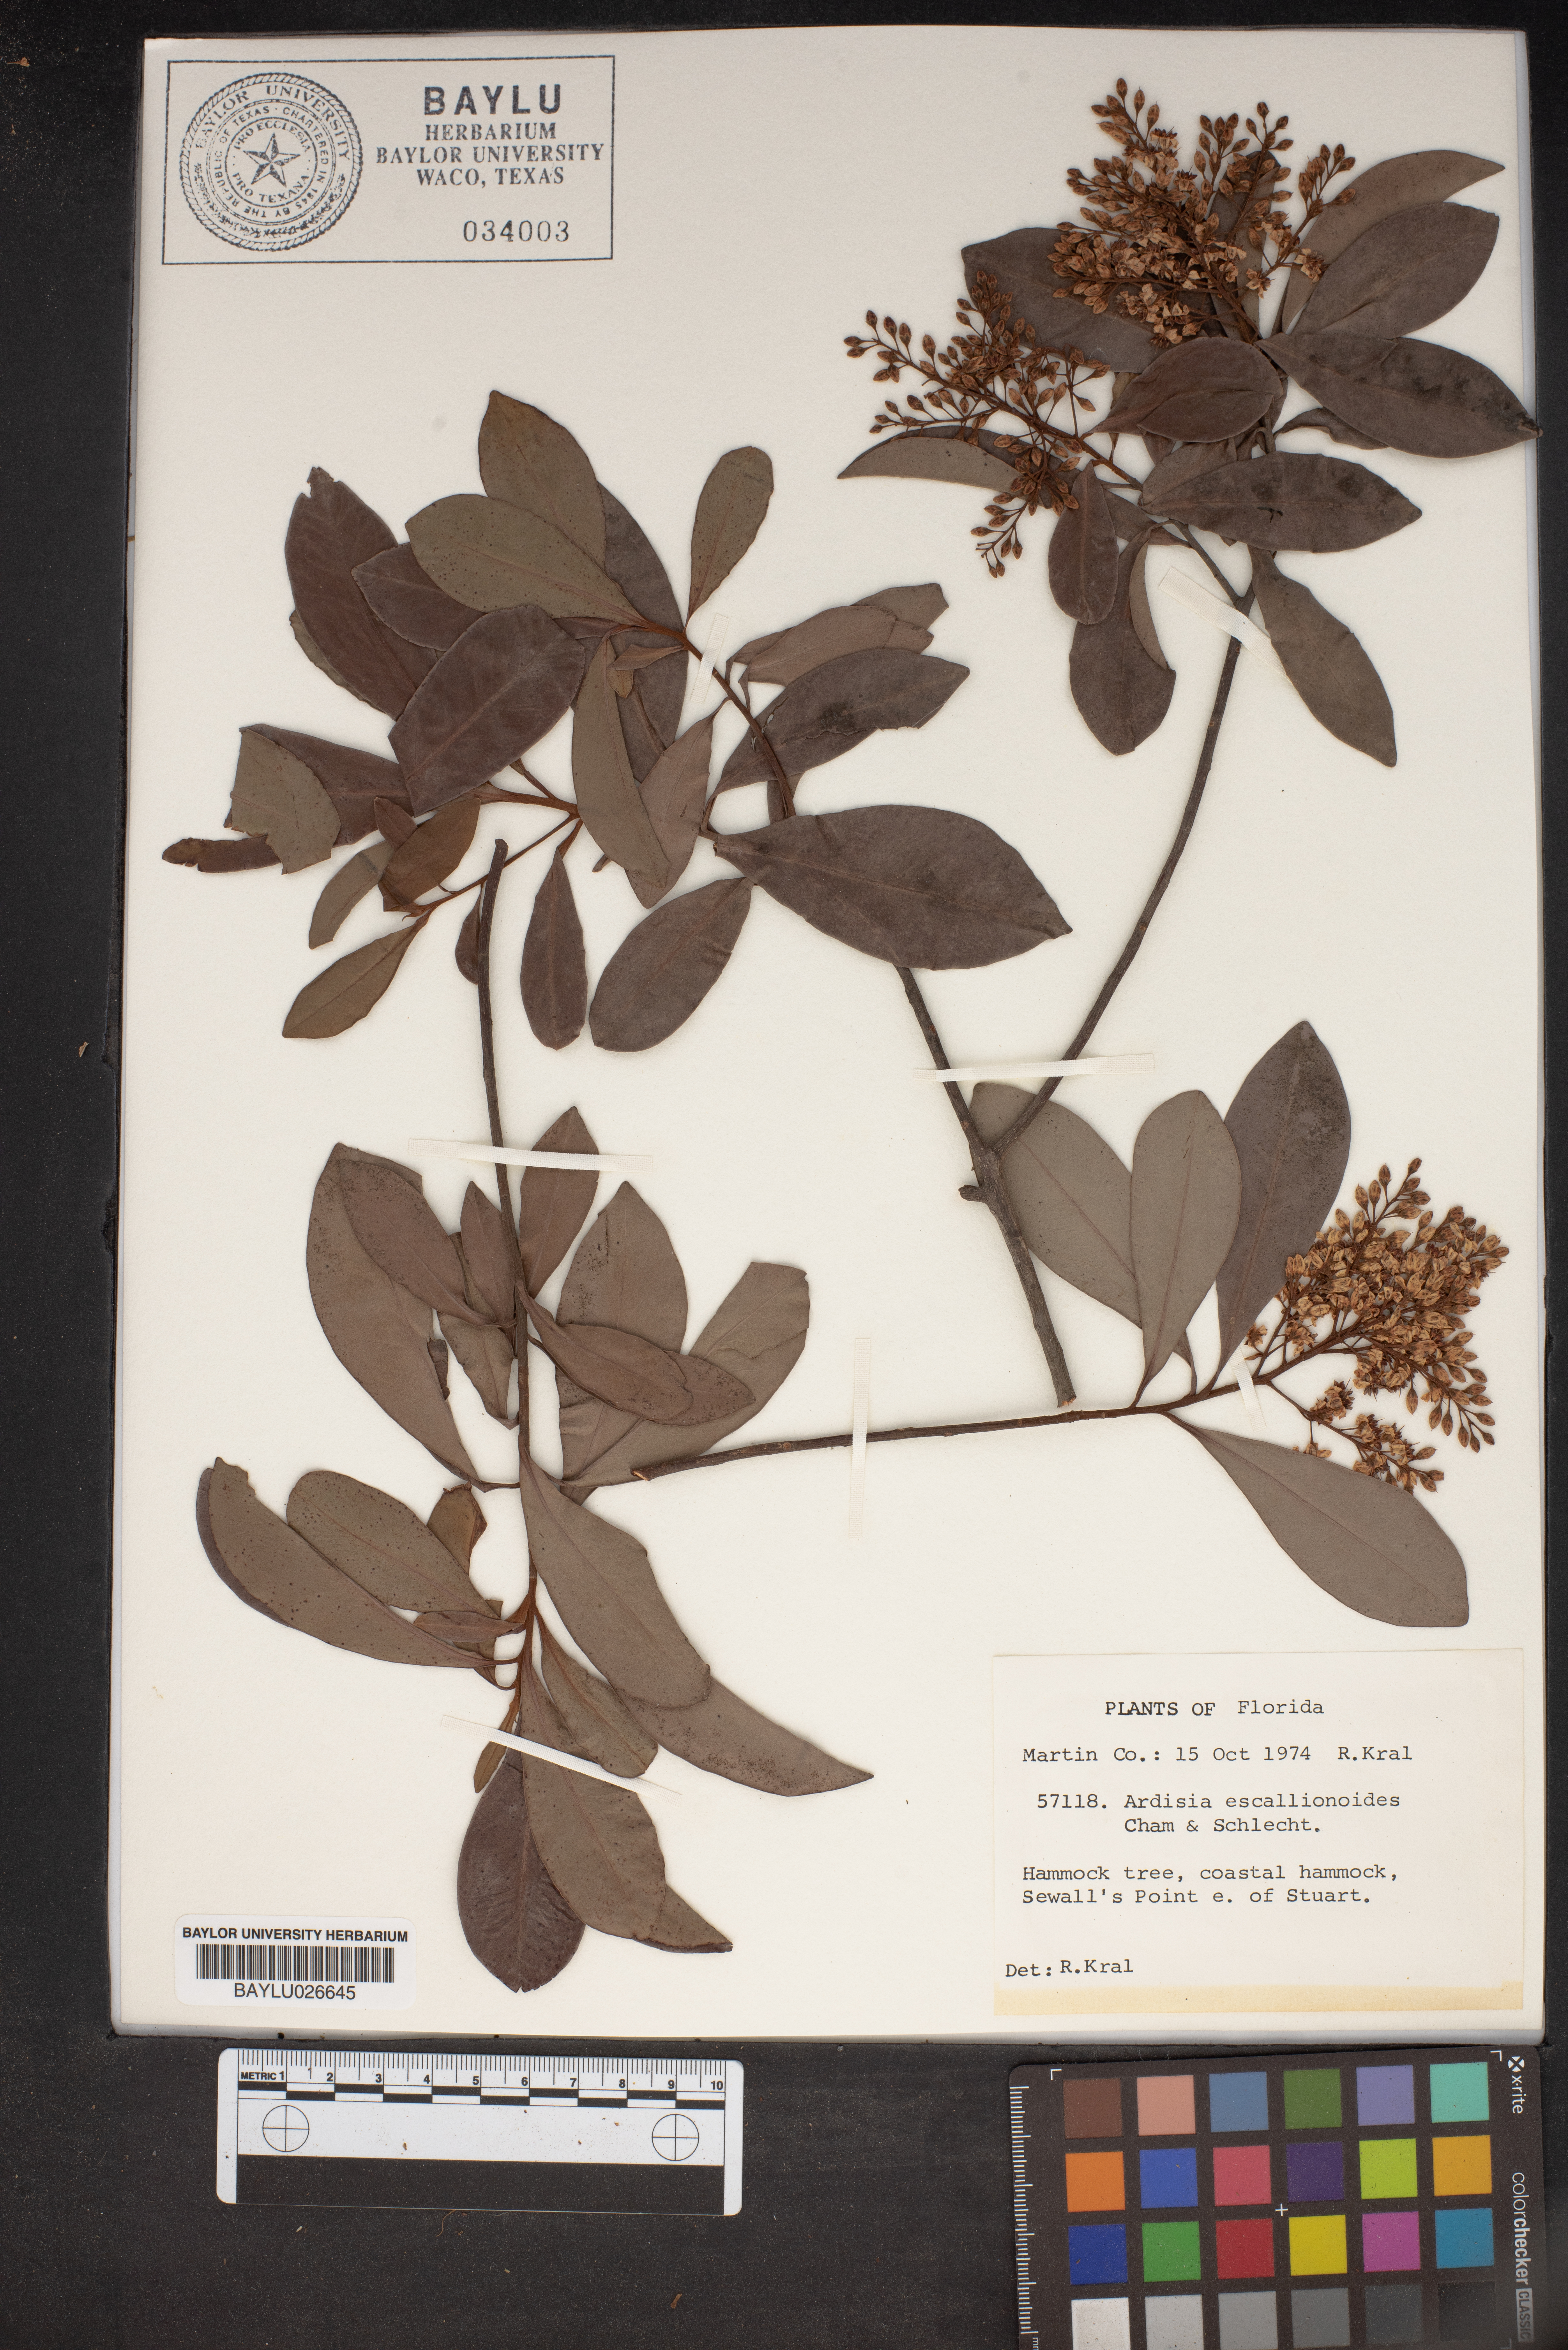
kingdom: Plantae
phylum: Tracheophyta
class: Magnoliopsida
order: Ericales
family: Primulaceae
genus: Ardisia
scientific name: Ardisia escallonioides
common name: Island marlberry
